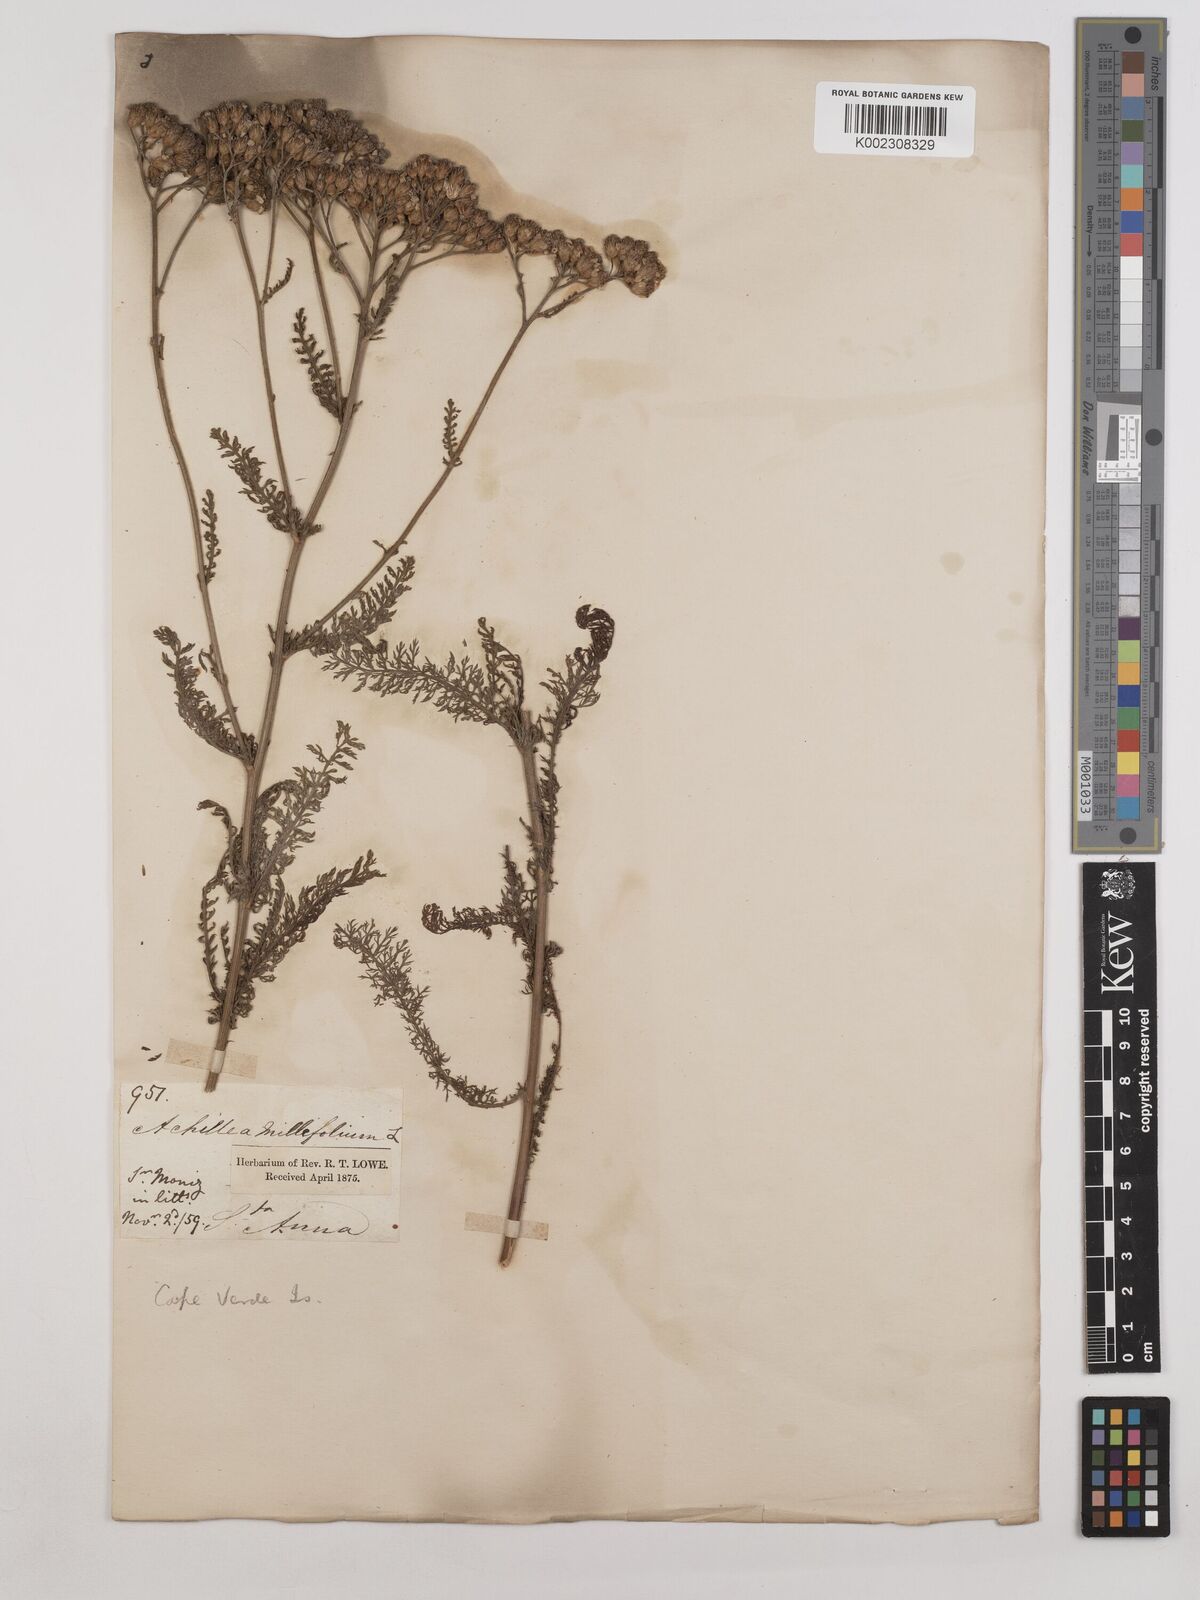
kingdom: Plantae
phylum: Tracheophyta
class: Magnoliopsida
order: Asterales
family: Asteraceae
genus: Achillea
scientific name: Achillea millefolium
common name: Yarrow
